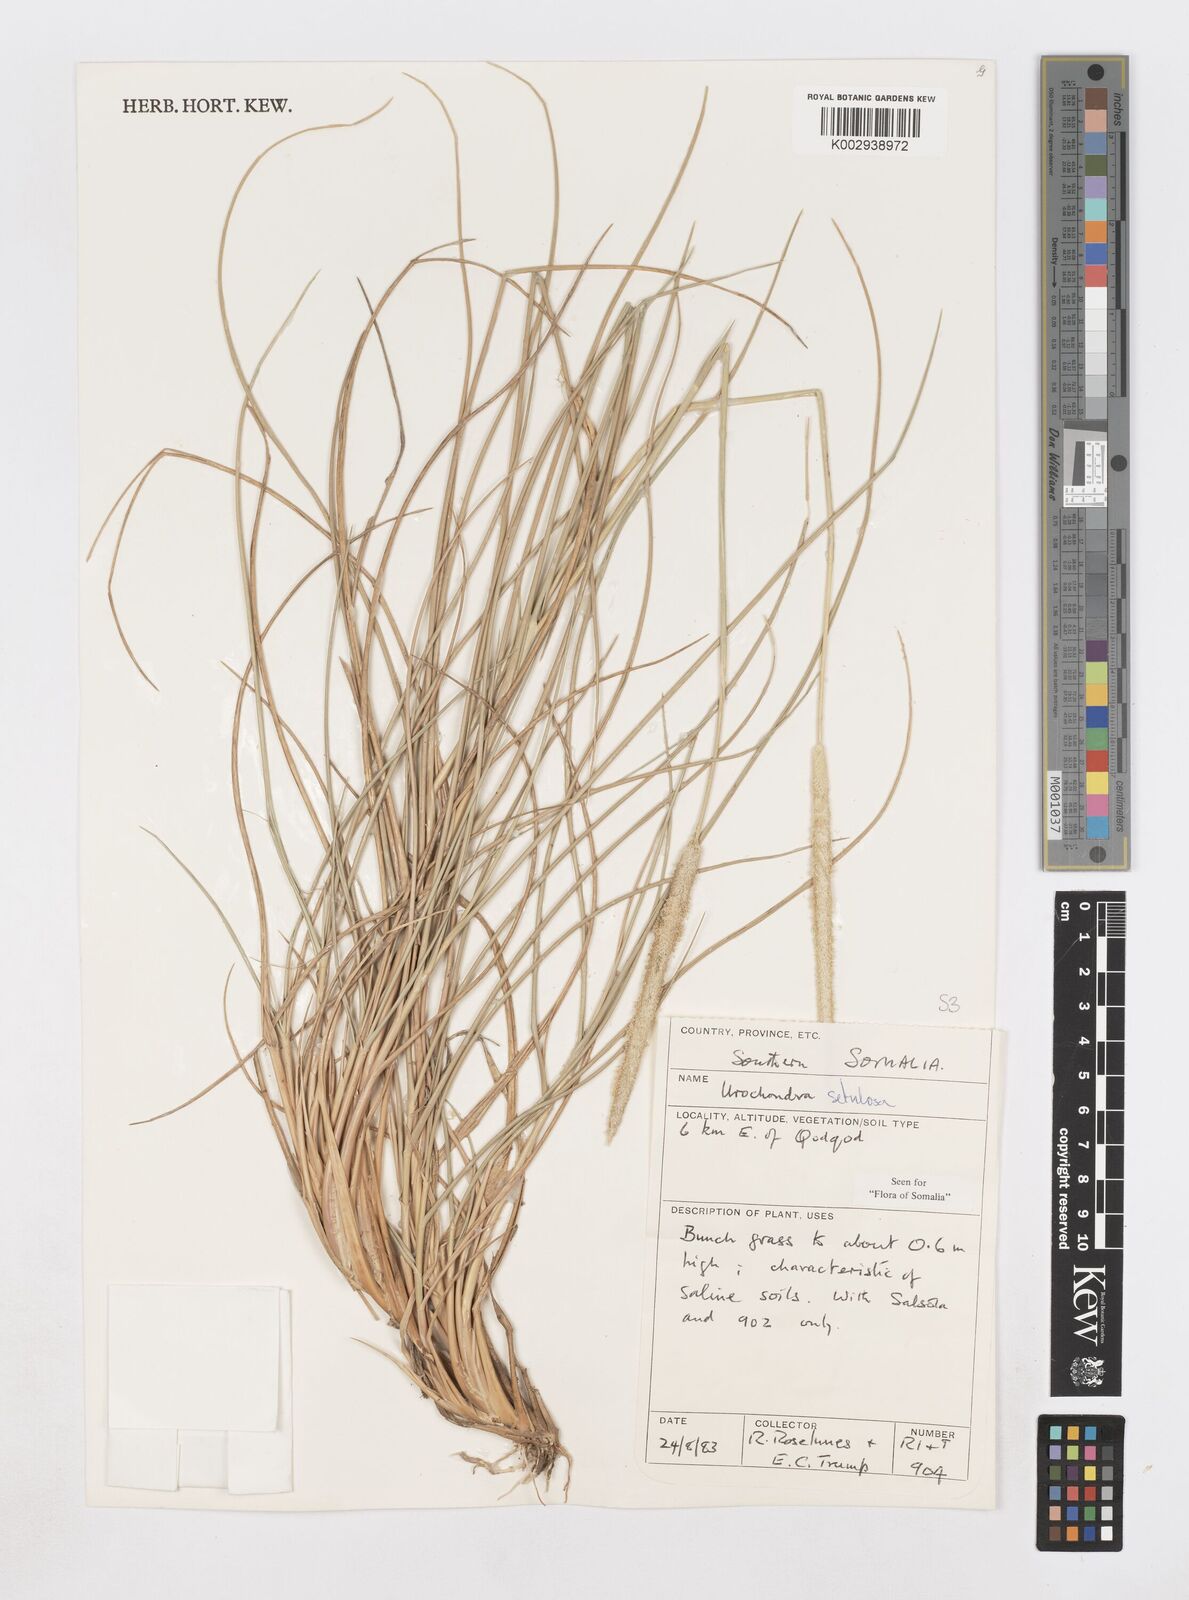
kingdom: Plantae
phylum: Tracheophyta
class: Liliopsida
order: Poales
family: Poaceae
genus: Urochondra
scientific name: Urochondra setulosa
